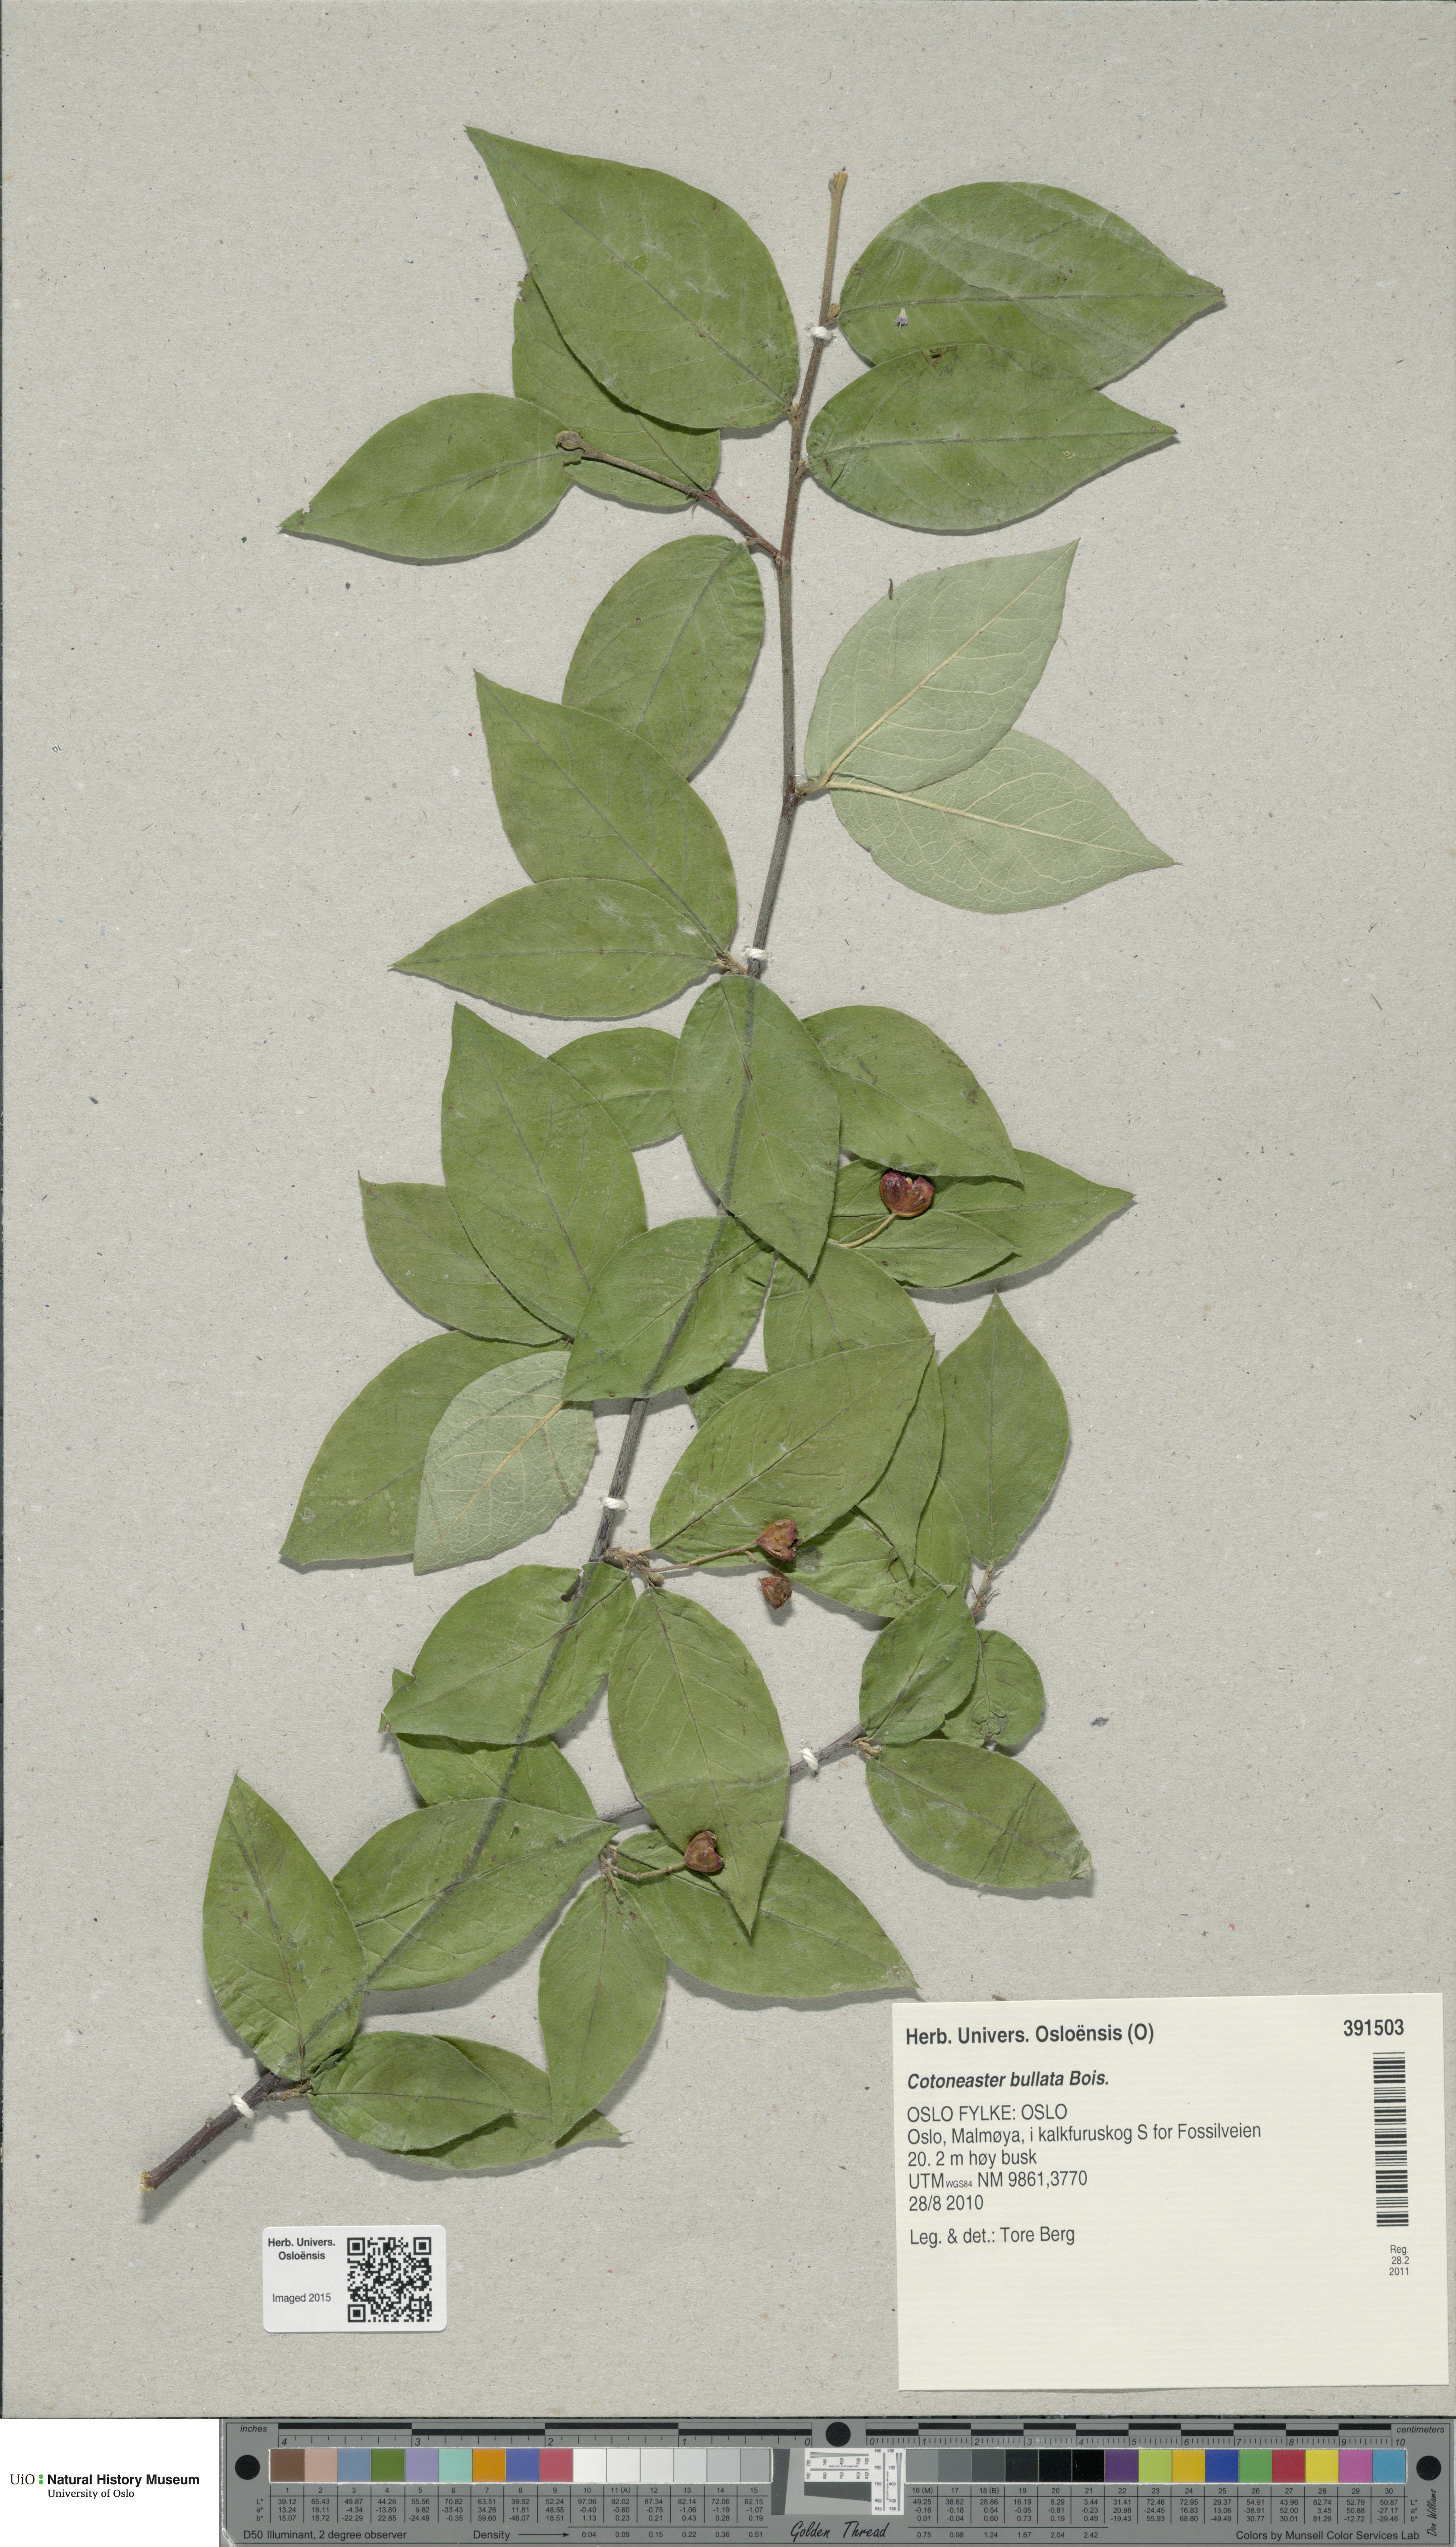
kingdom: Plantae
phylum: Tracheophyta
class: Magnoliopsida
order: Rosales
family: Rosaceae
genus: Cotoneaster
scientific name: Cotoneaster bullatus
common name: Hollyberry cotoneaster
